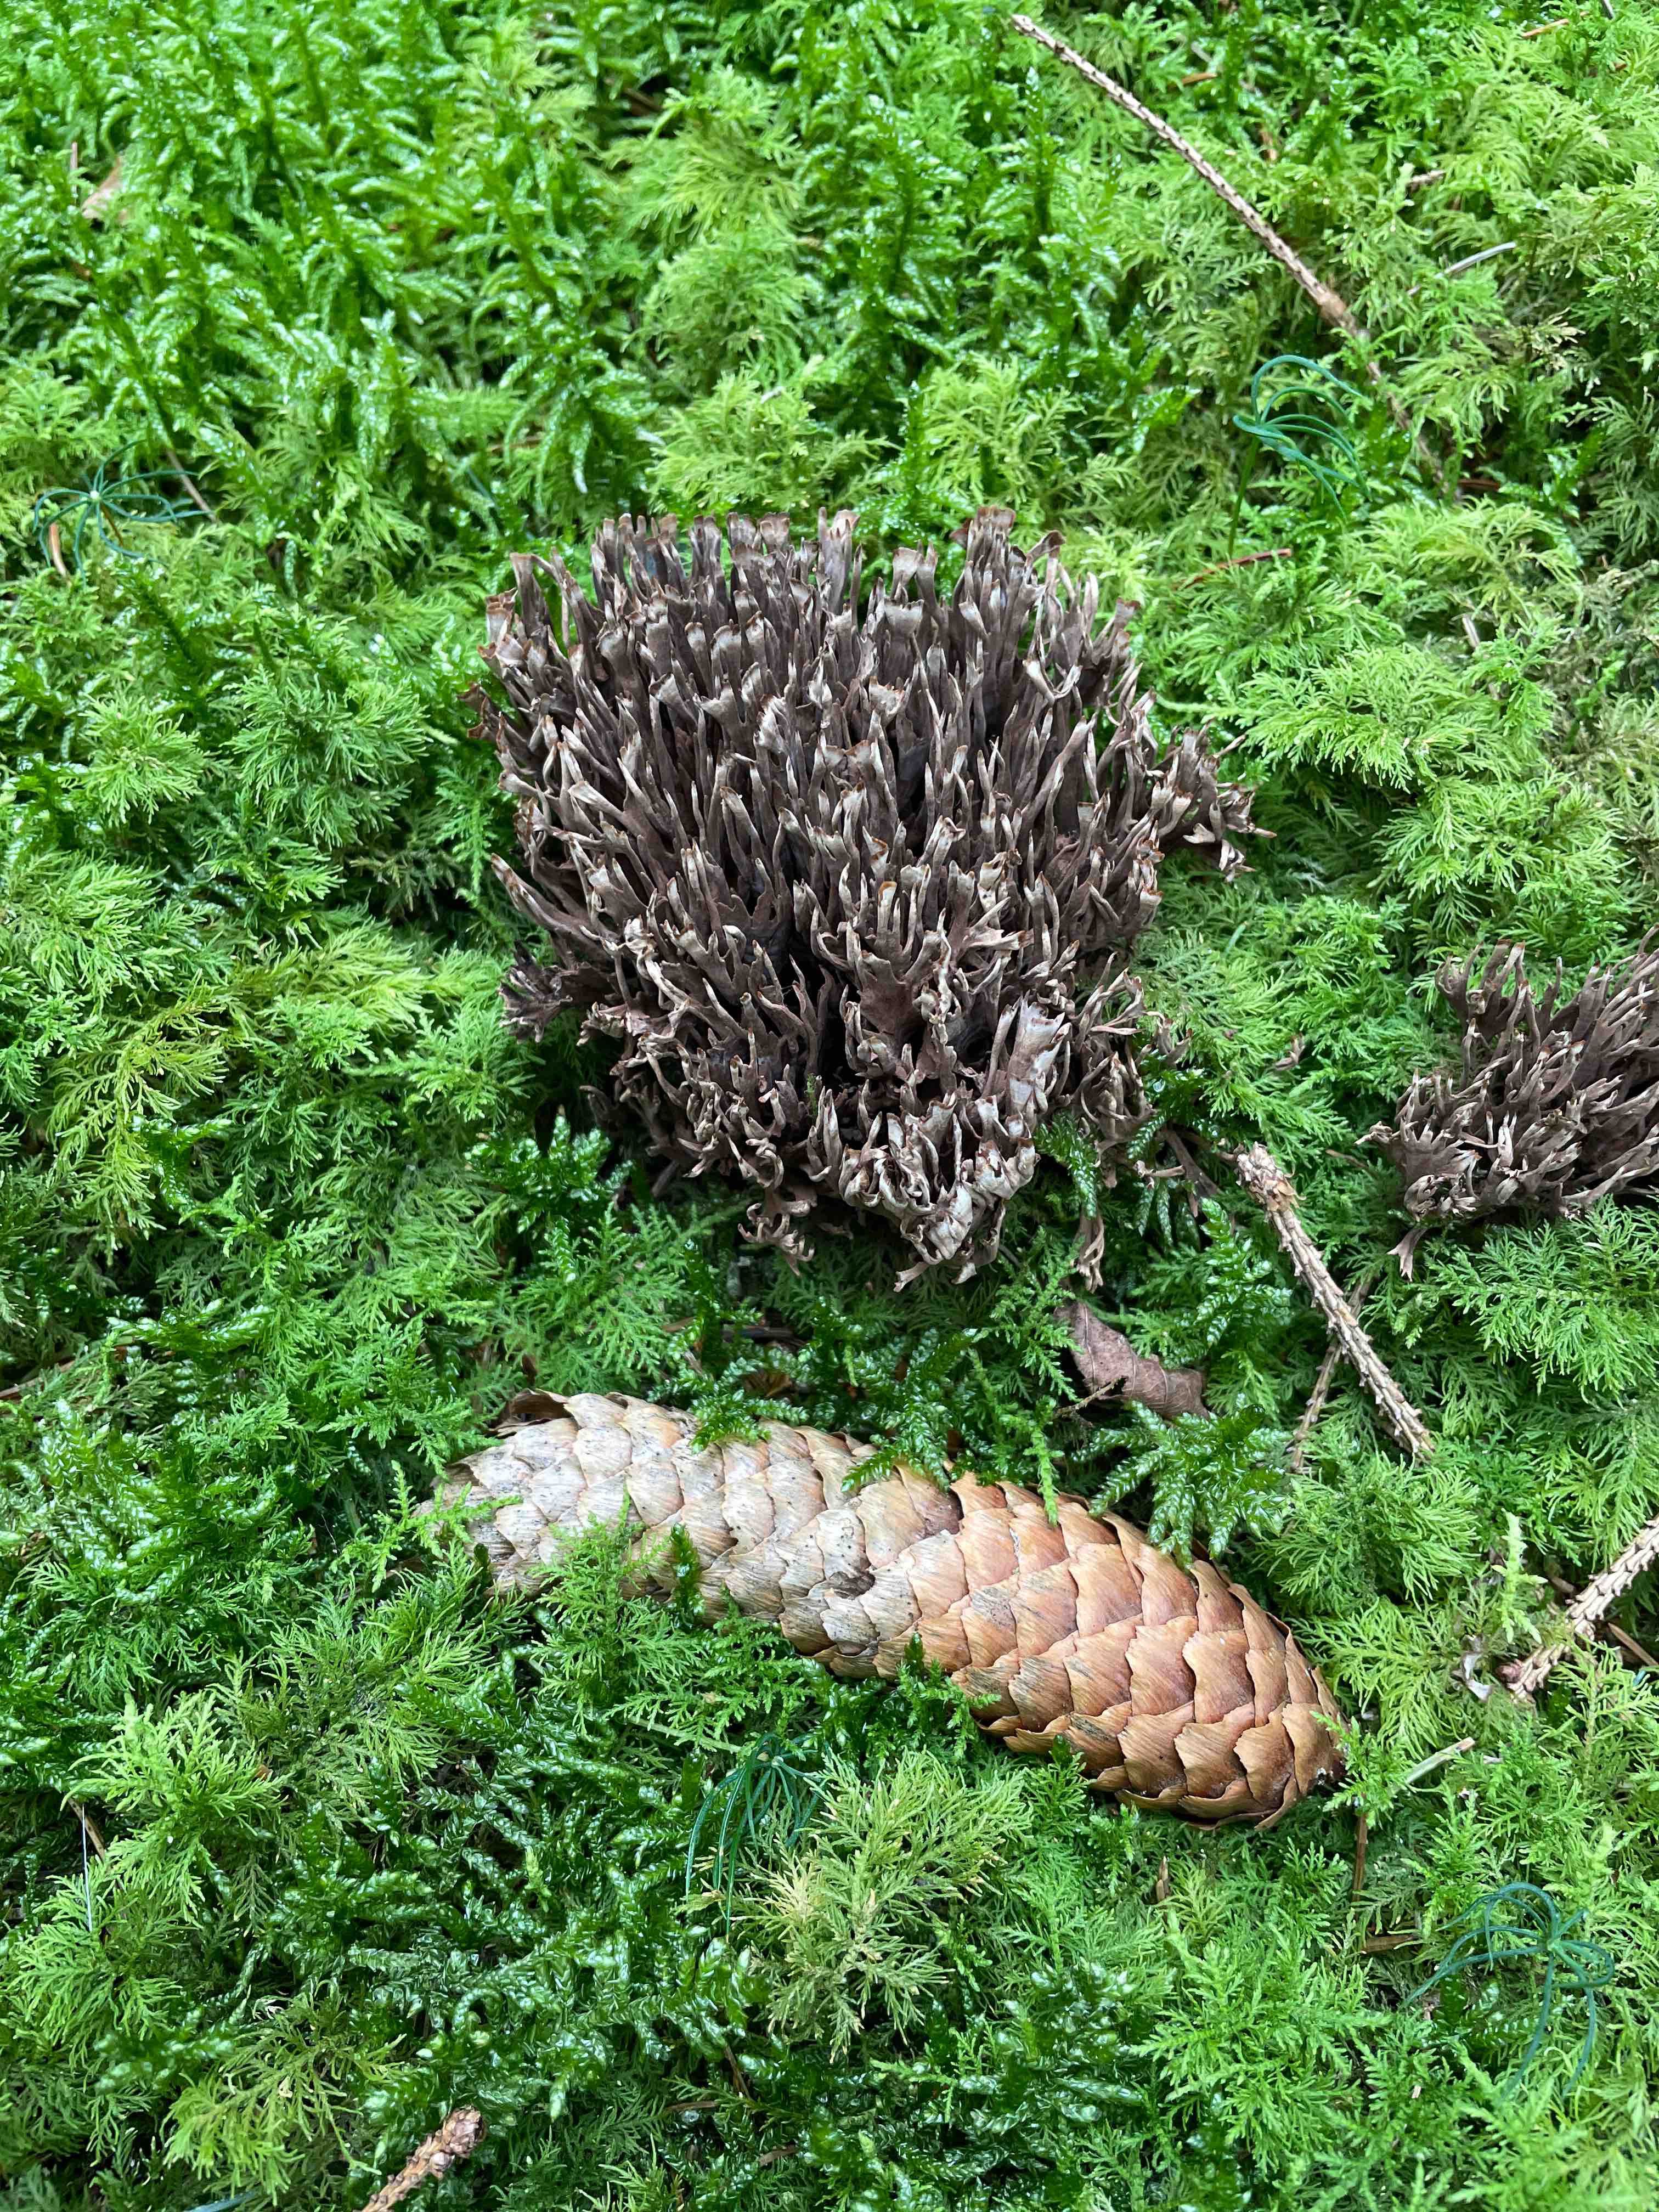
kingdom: Fungi
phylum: Basidiomycota
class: Agaricomycetes
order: Thelephorales
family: Thelephoraceae
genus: Thelephora
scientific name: Thelephora palmata
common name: grenet frynsesvamp
